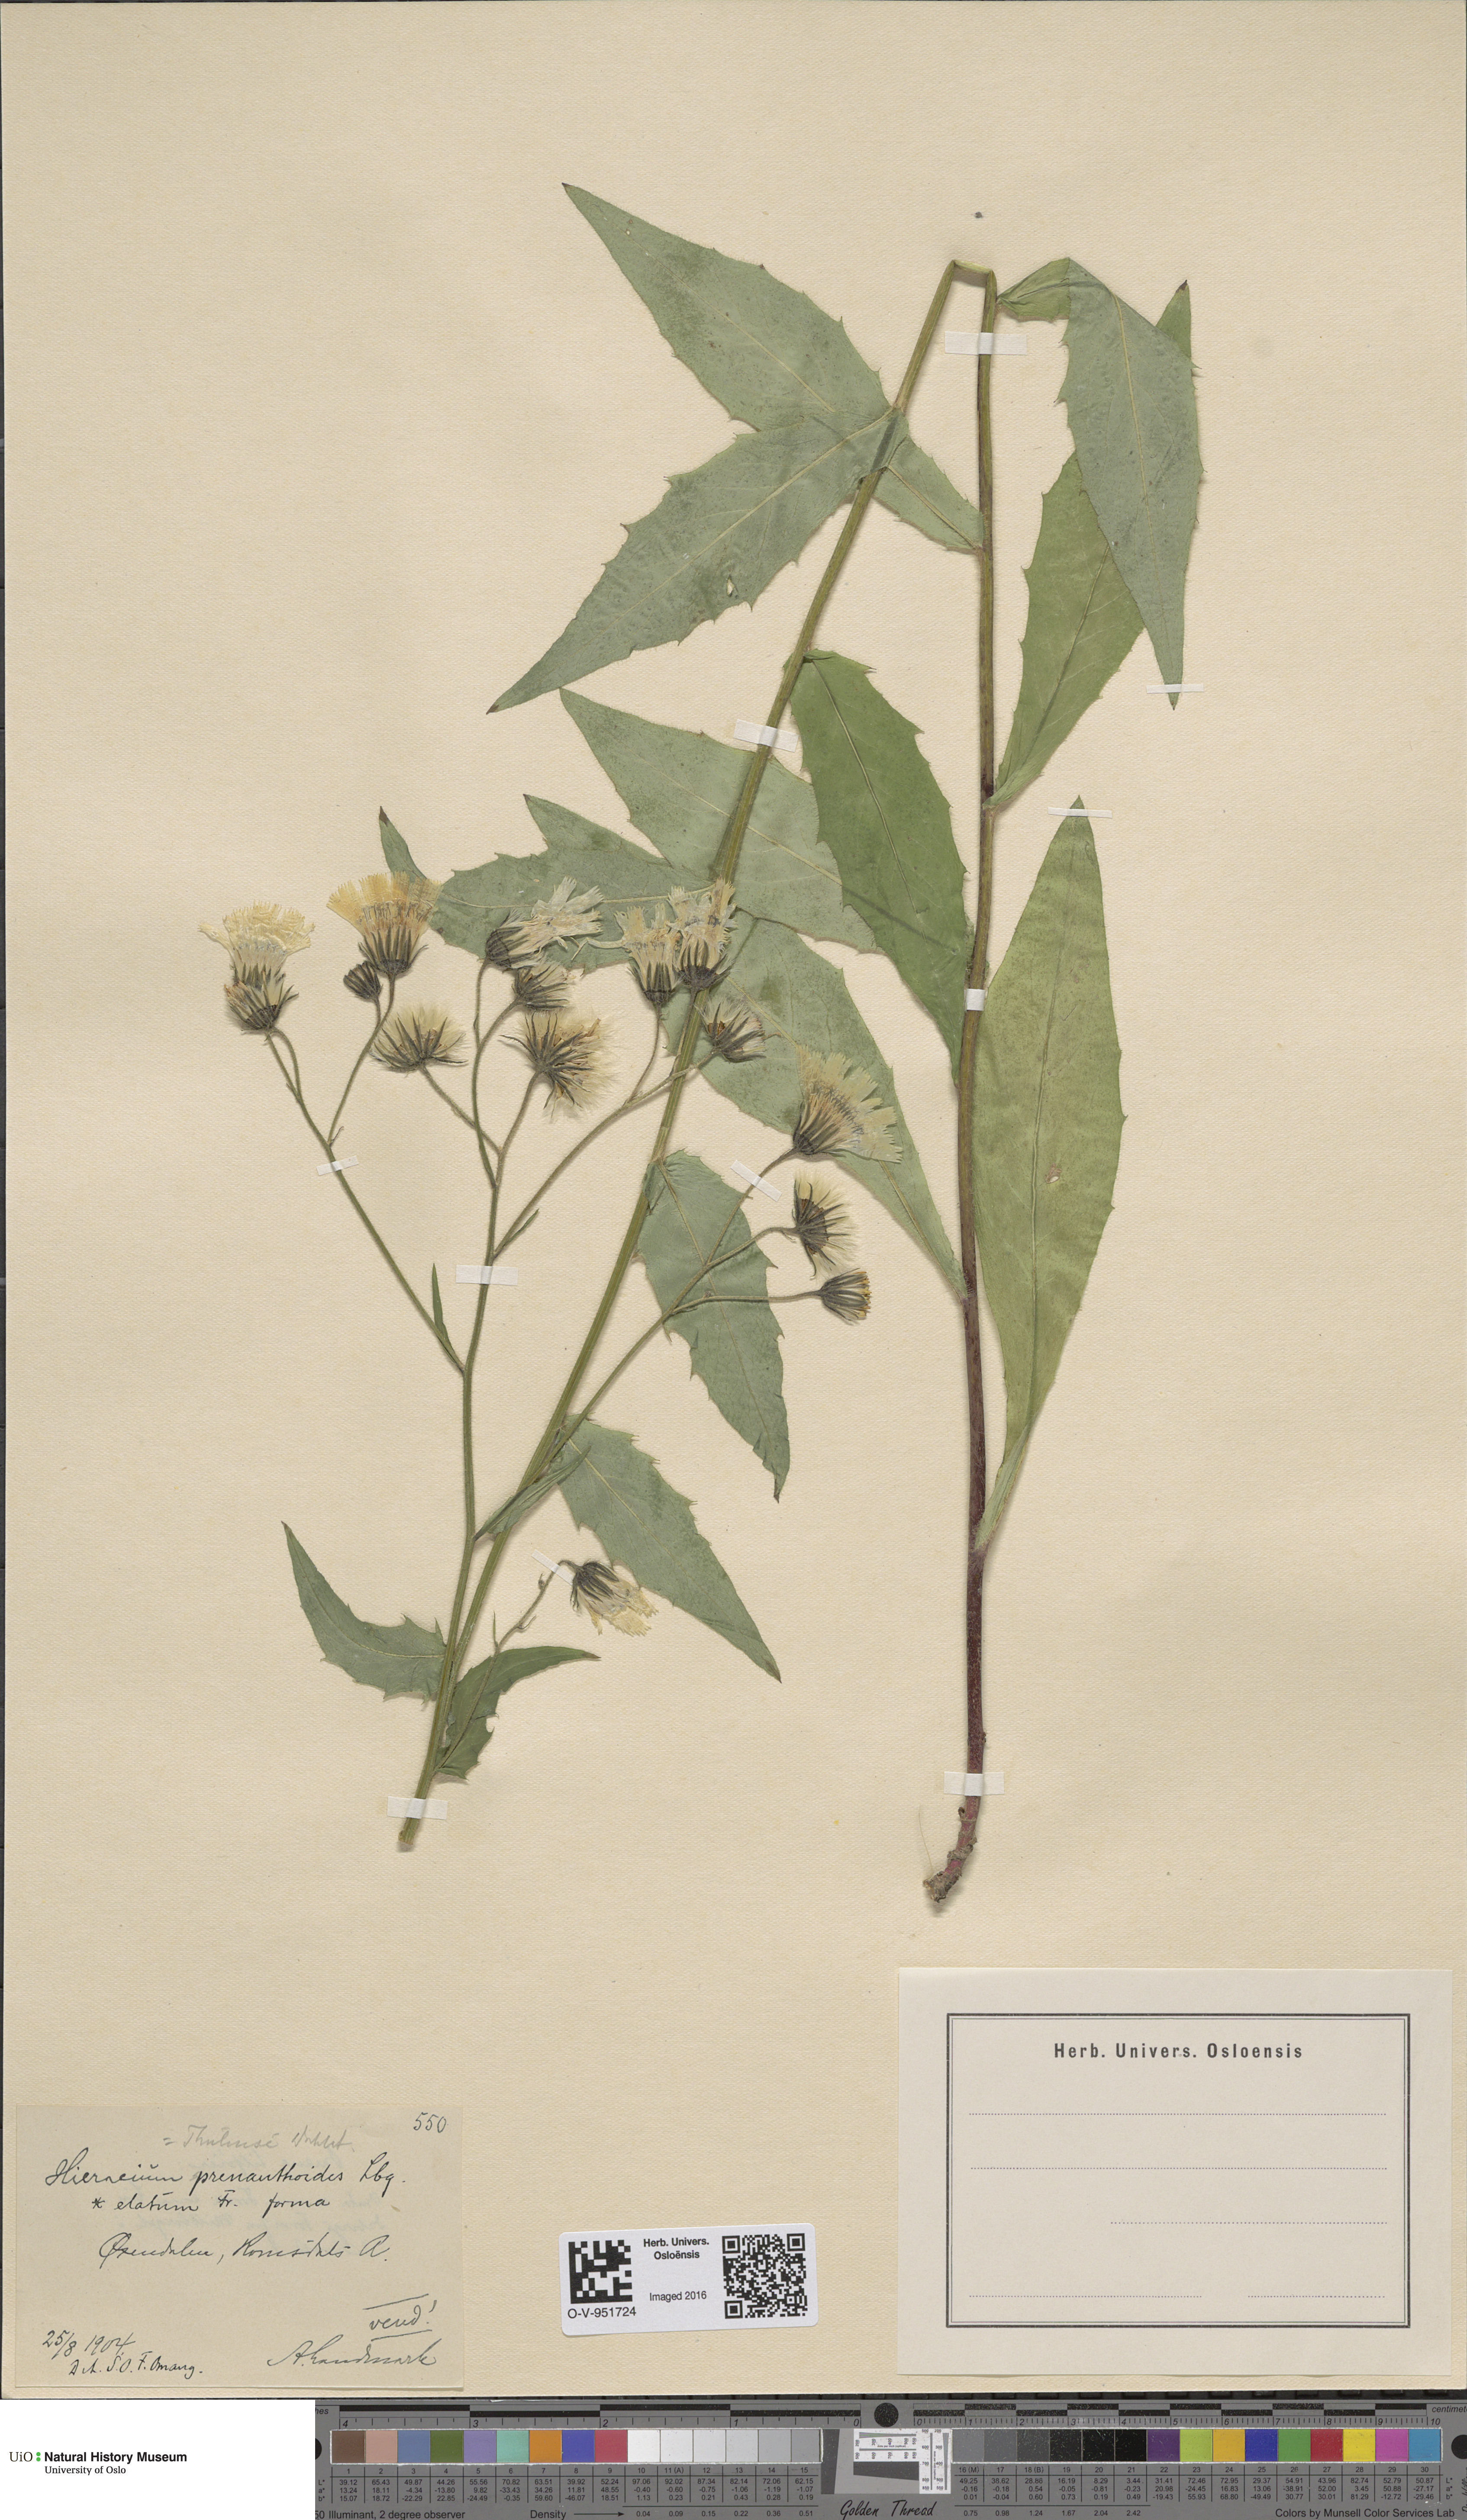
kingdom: Plantae
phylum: Tracheophyta
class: Magnoliopsida
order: Asterales
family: Asteraceae
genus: Hieracium
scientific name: Hieracium prenanthoides
